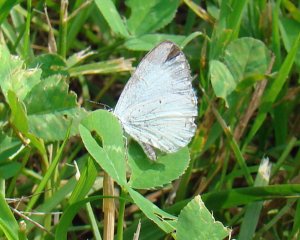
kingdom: Animalia
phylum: Arthropoda
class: Insecta
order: Lepidoptera
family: Lycaenidae
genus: Cyaniris
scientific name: Cyaniris neglecta
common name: Summer Azure
